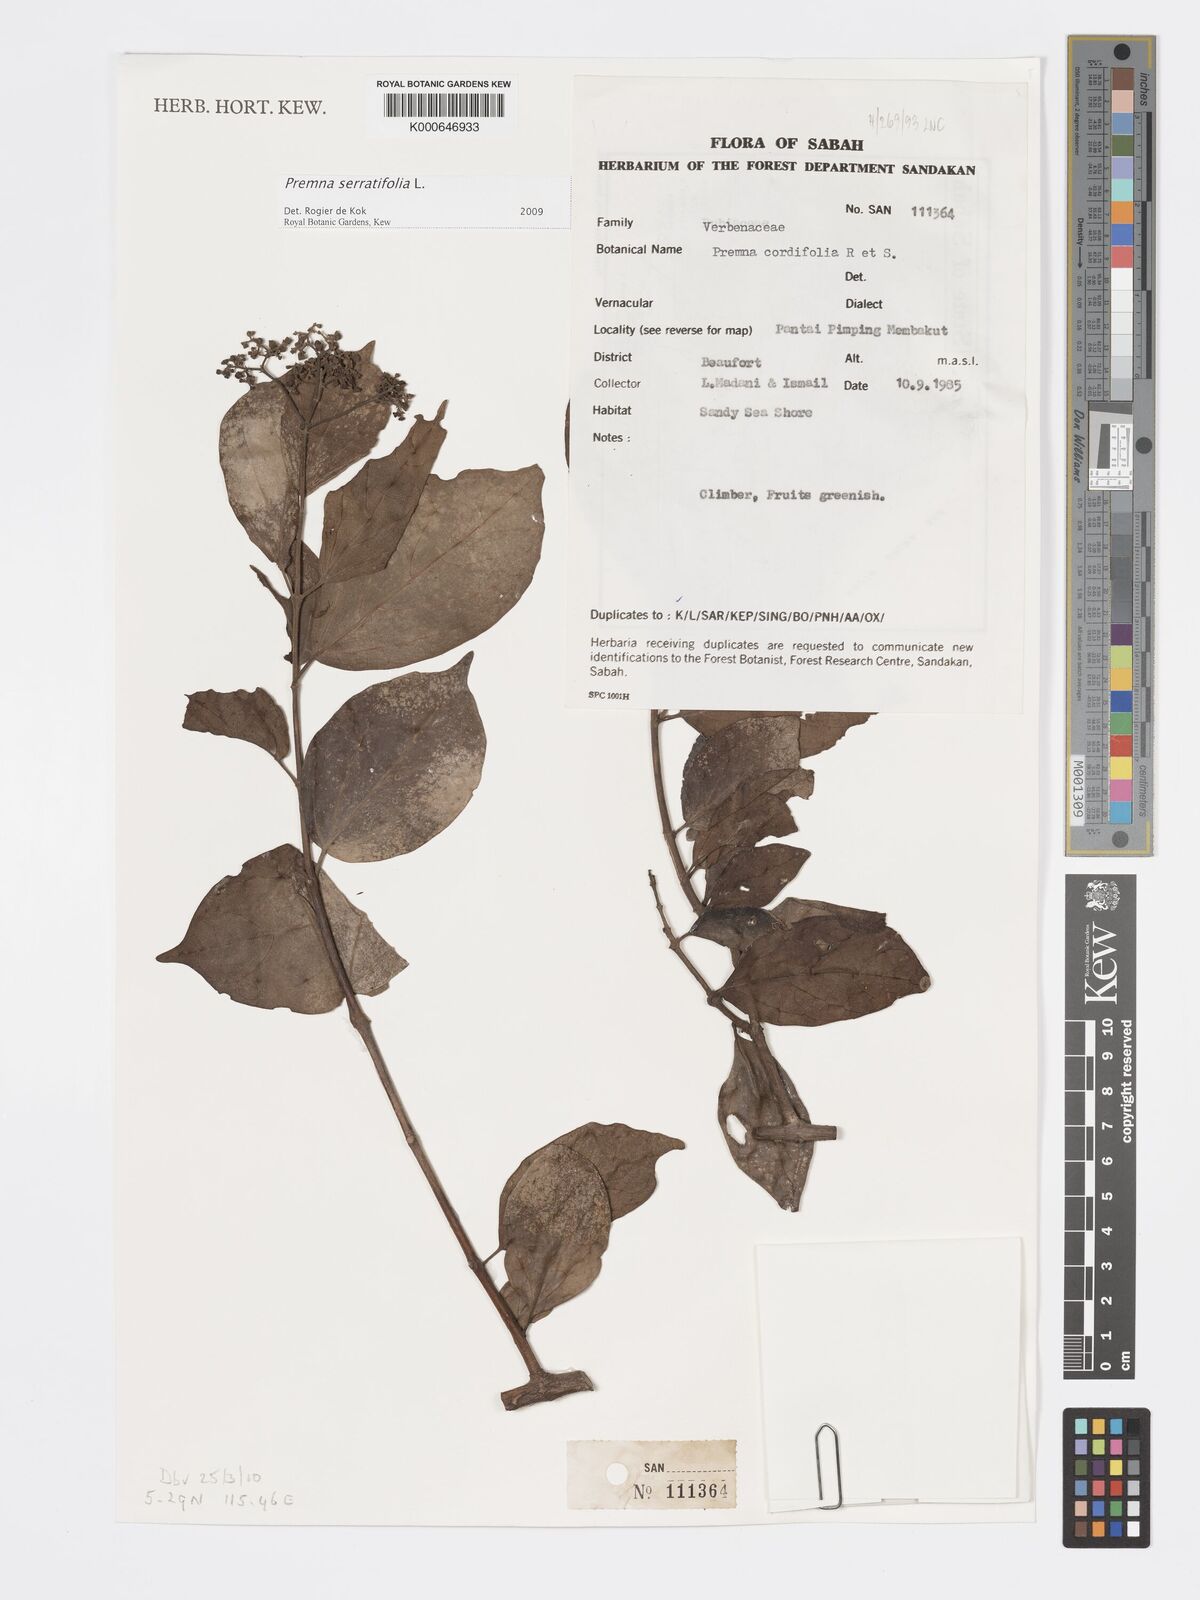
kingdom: Plantae
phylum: Tracheophyta
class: Magnoliopsida
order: Lamiales
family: Lamiaceae
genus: Premna
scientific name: Premna serratifolia
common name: Bastard guelder
